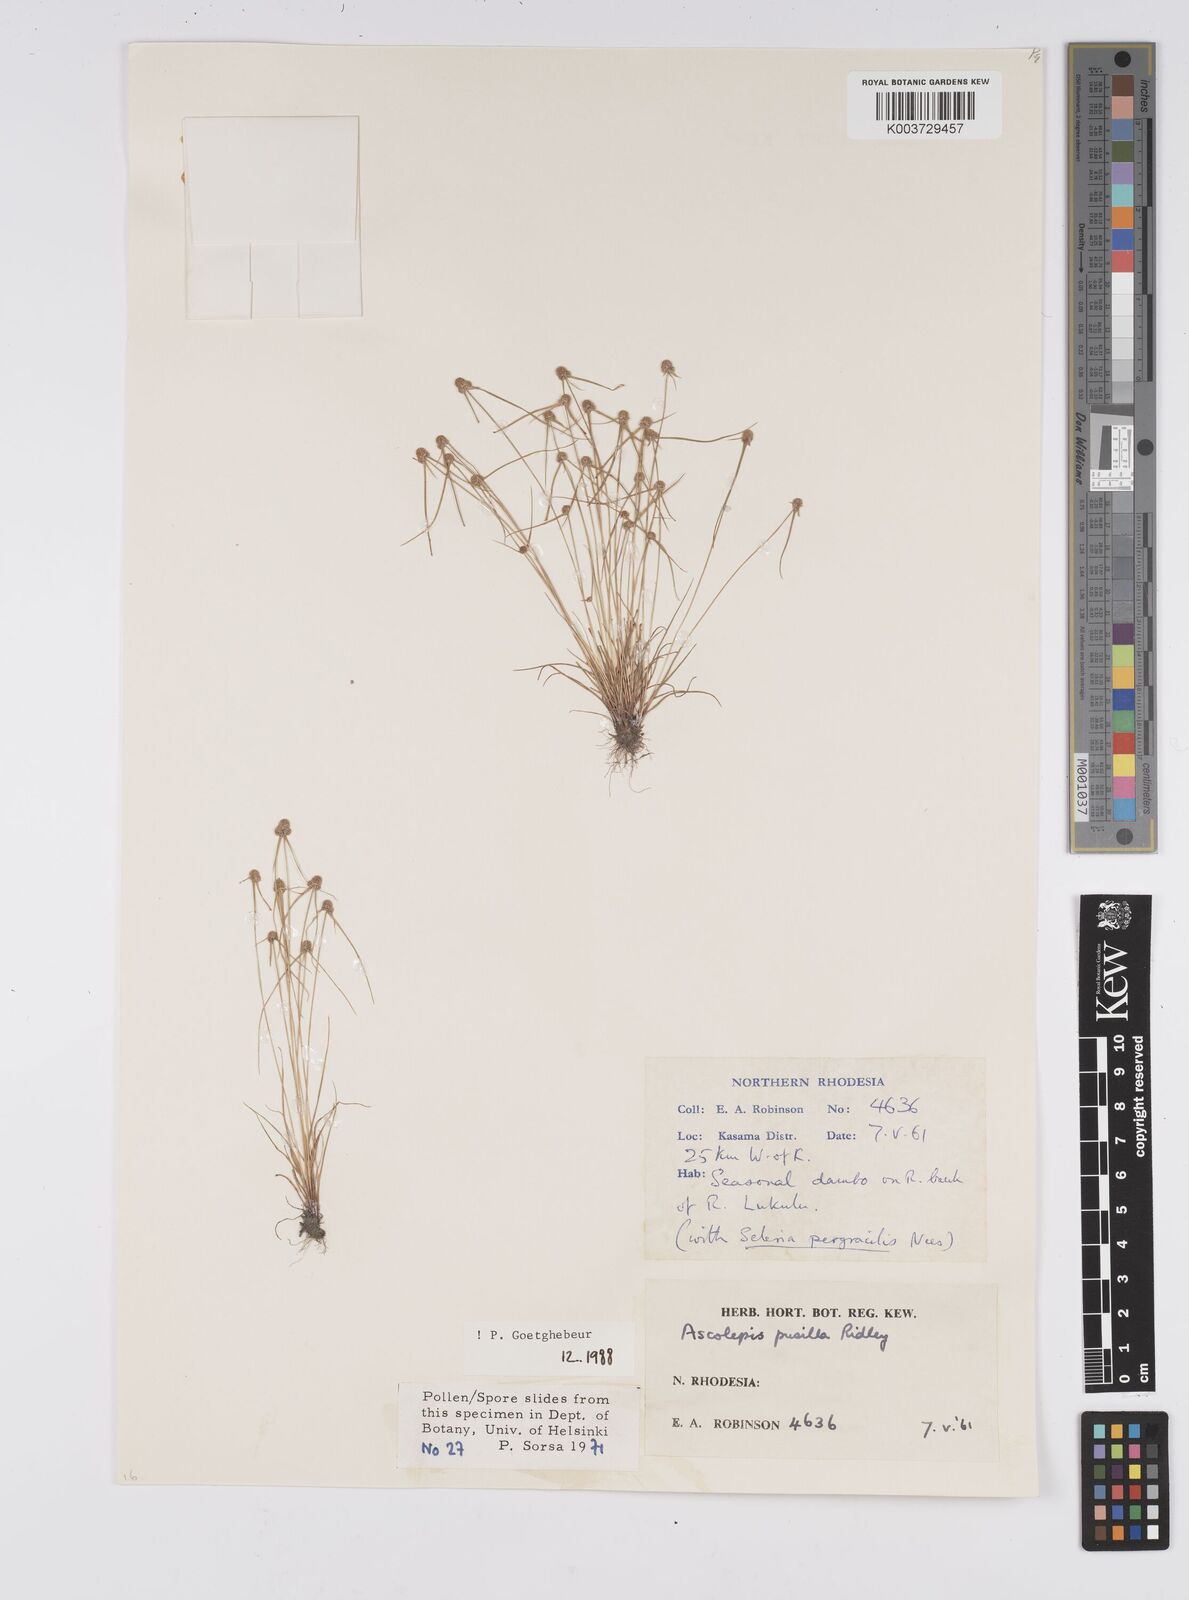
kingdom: Plantae
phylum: Tracheophyta
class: Liliopsida
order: Poales
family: Cyperaceae
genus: Cyperus
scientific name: Cyperus
